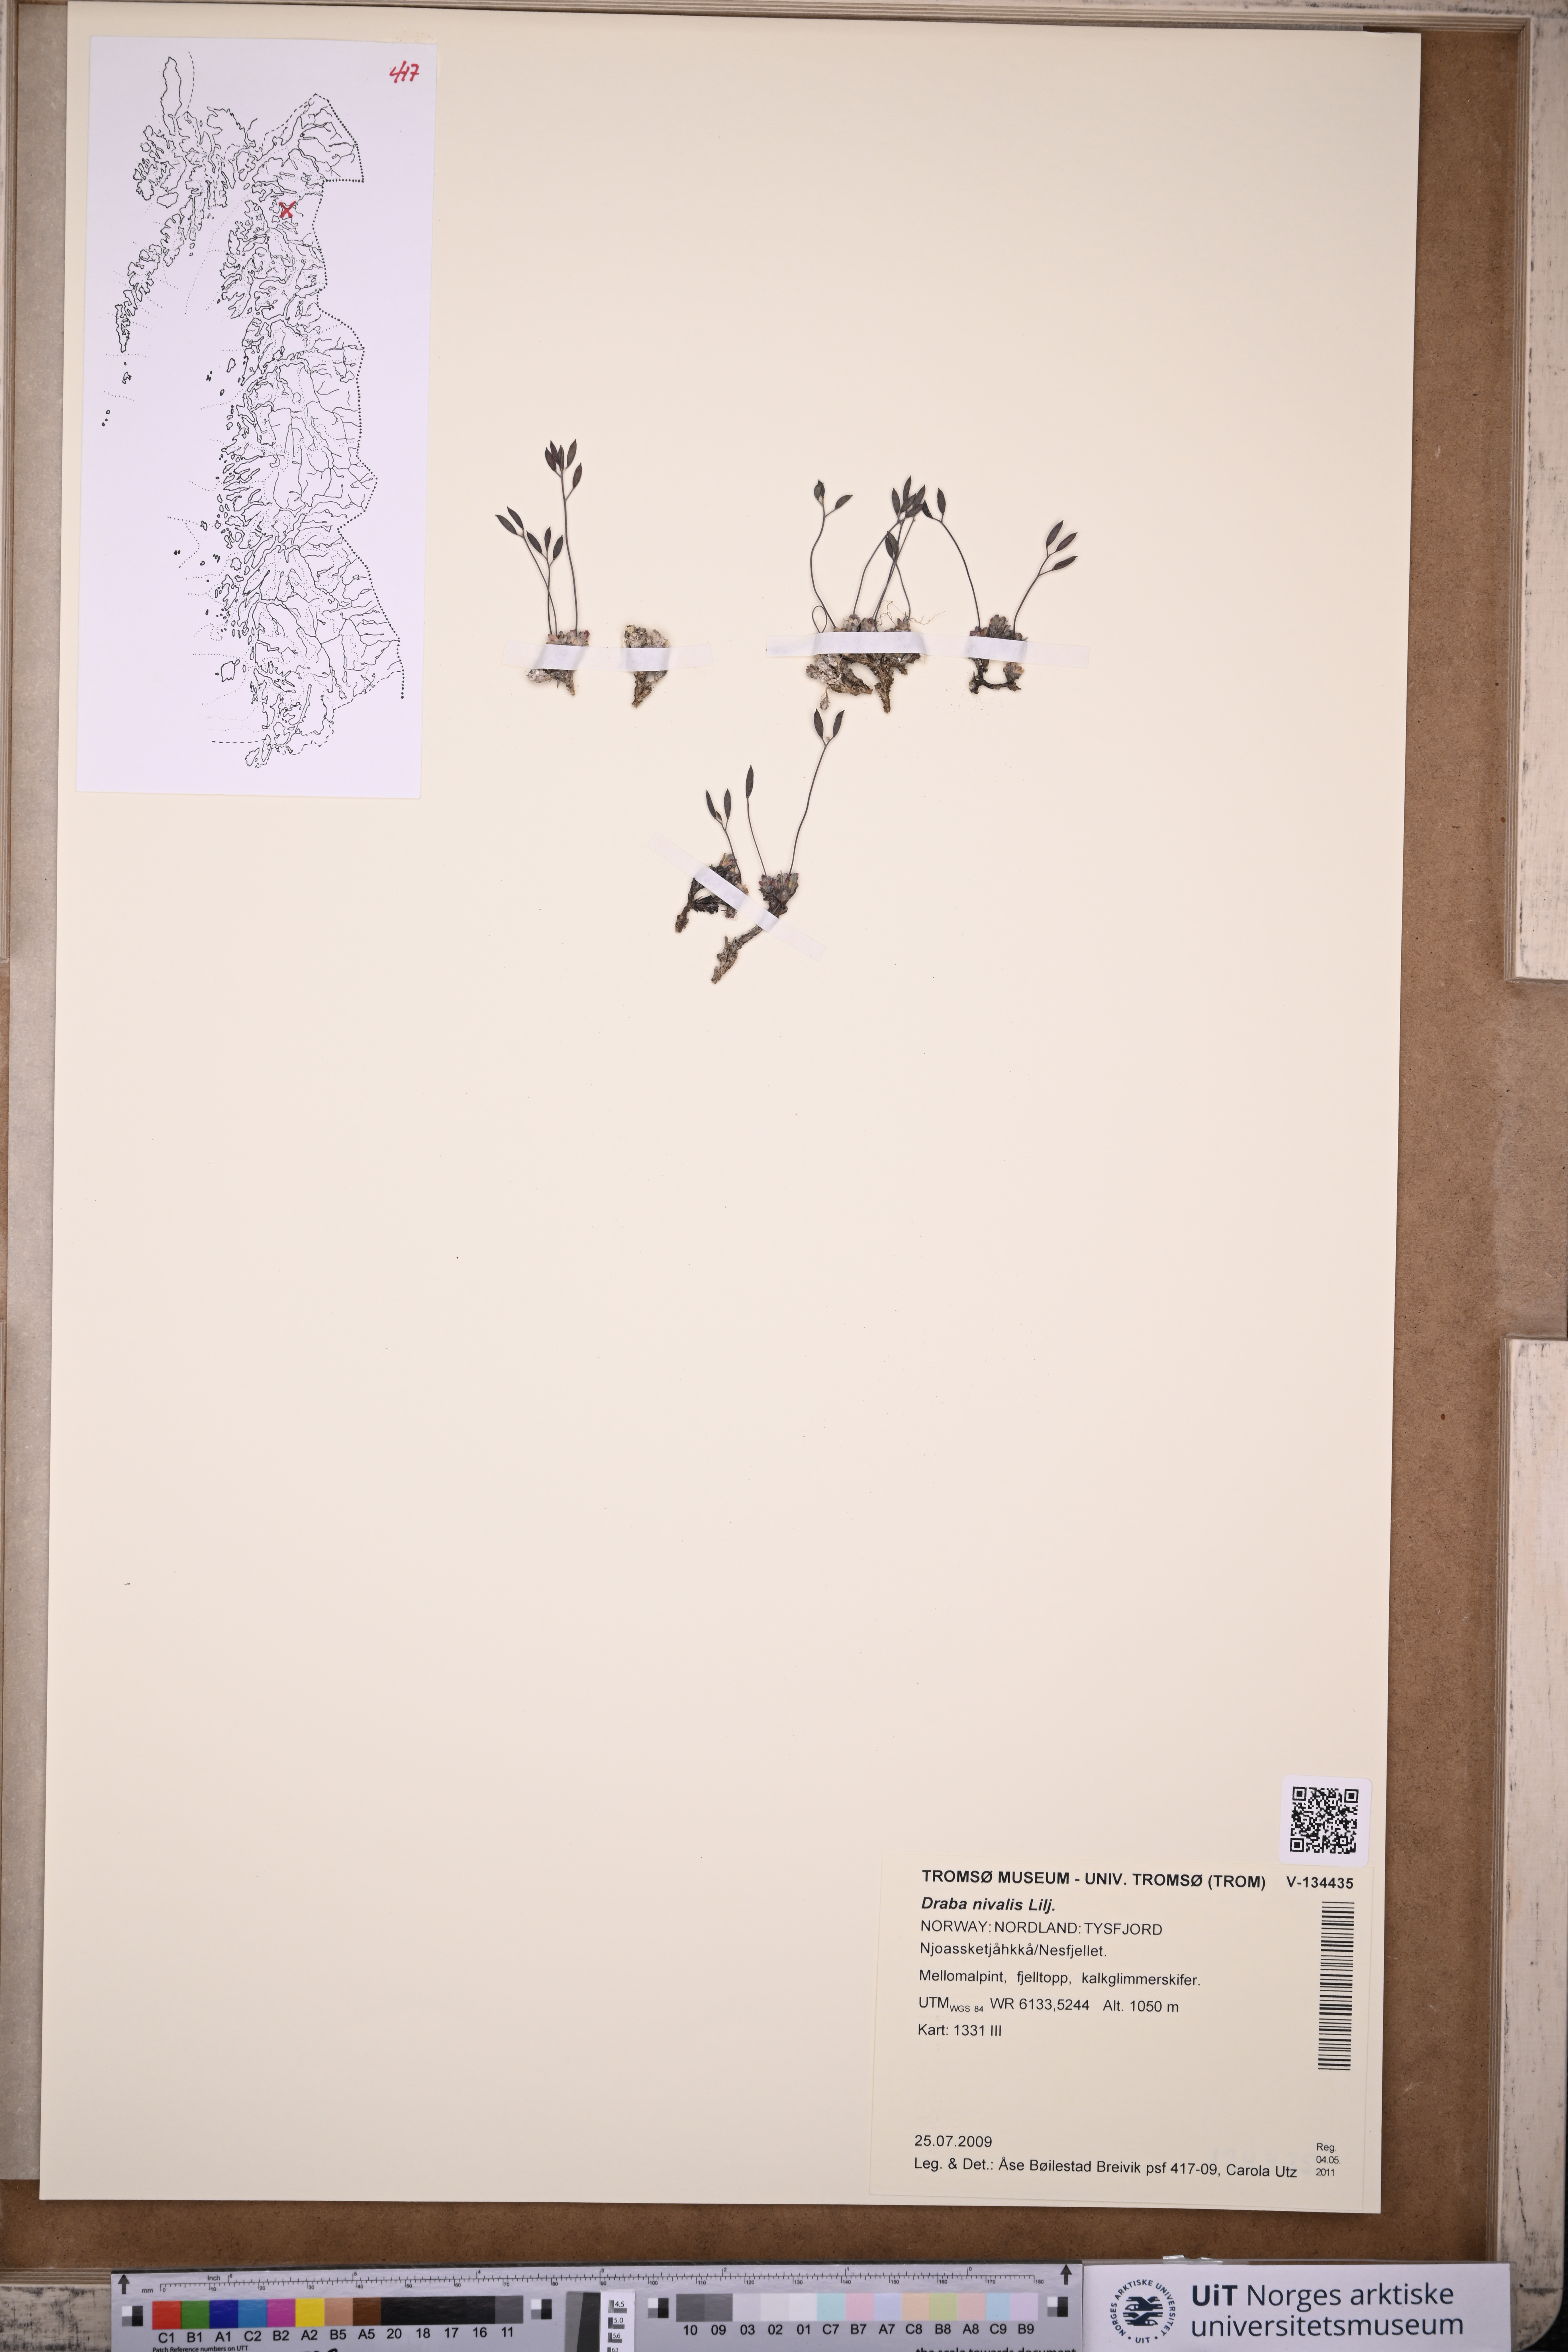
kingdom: Plantae
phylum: Tracheophyta
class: Magnoliopsida
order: Brassicales
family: Brassicaceae
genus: Draba
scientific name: Draba nivalis
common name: Snow draba
